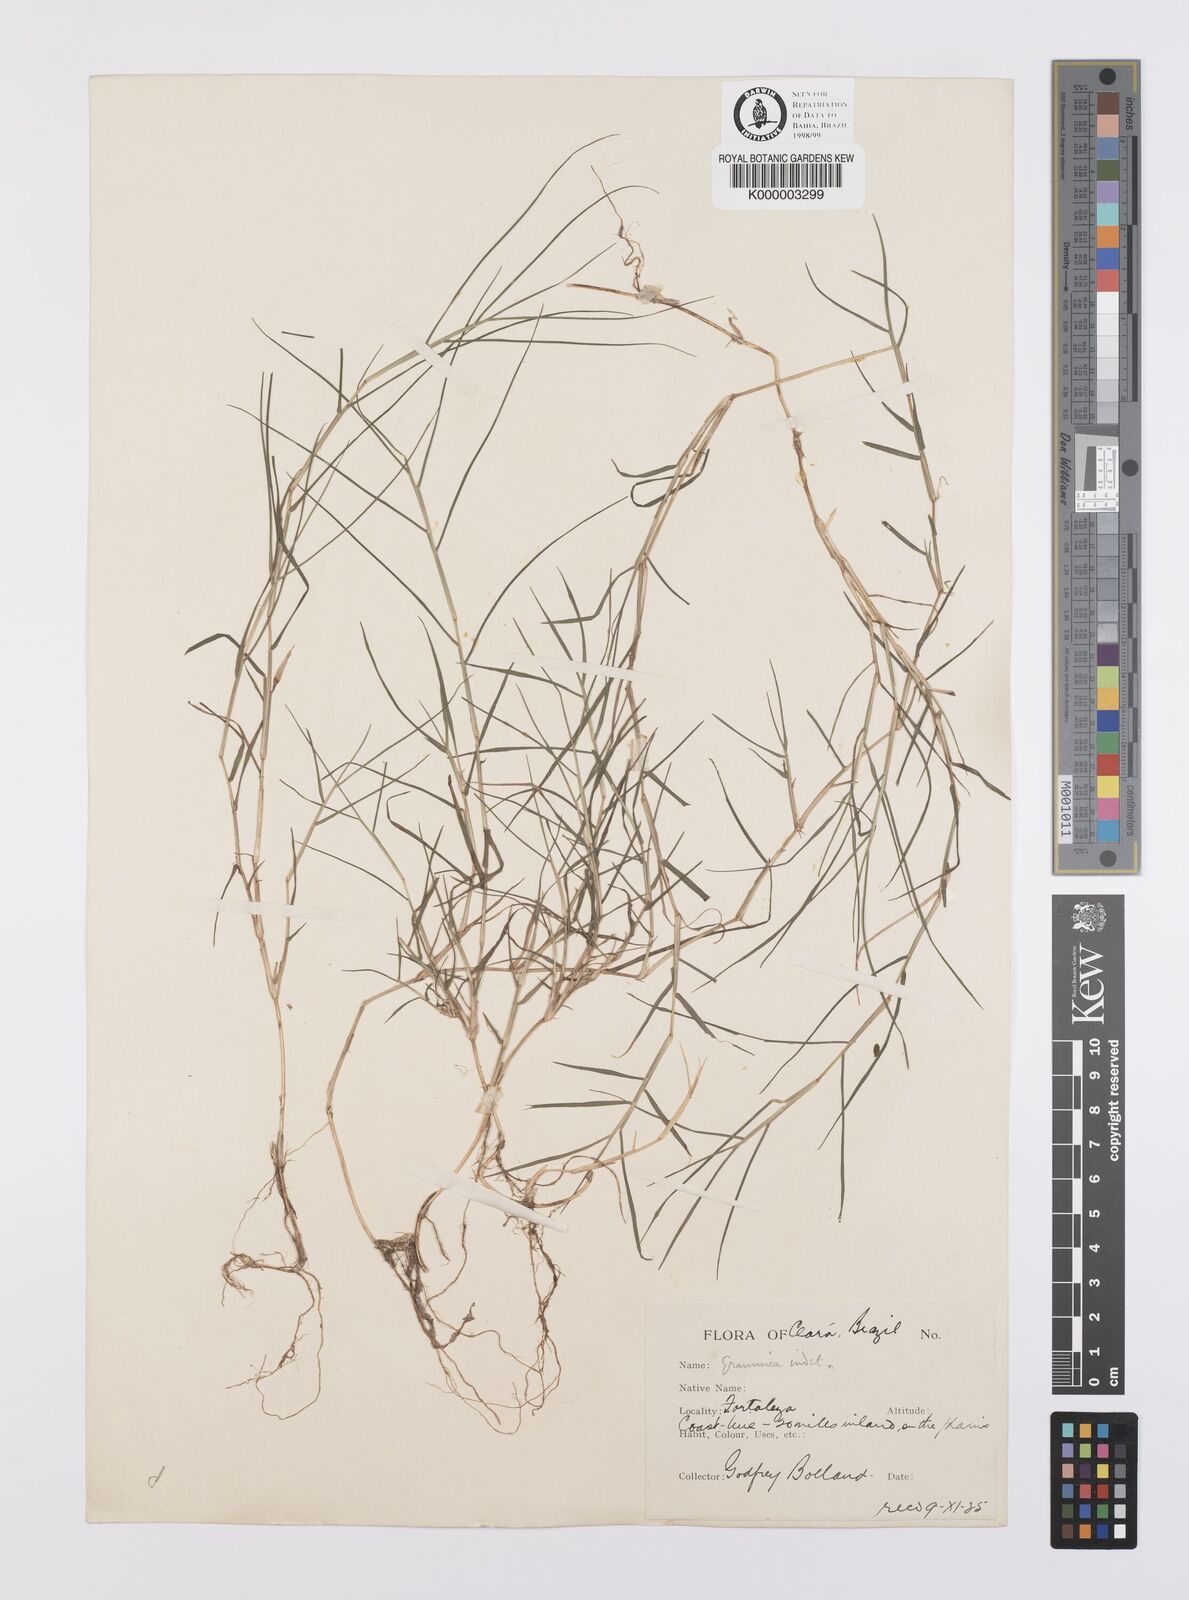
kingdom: Plantae
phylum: Tracheophyta
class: Liliopsida
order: Poales
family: Poaceae
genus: Cynodon
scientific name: Cynodon dactylon
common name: Bermuda grass
